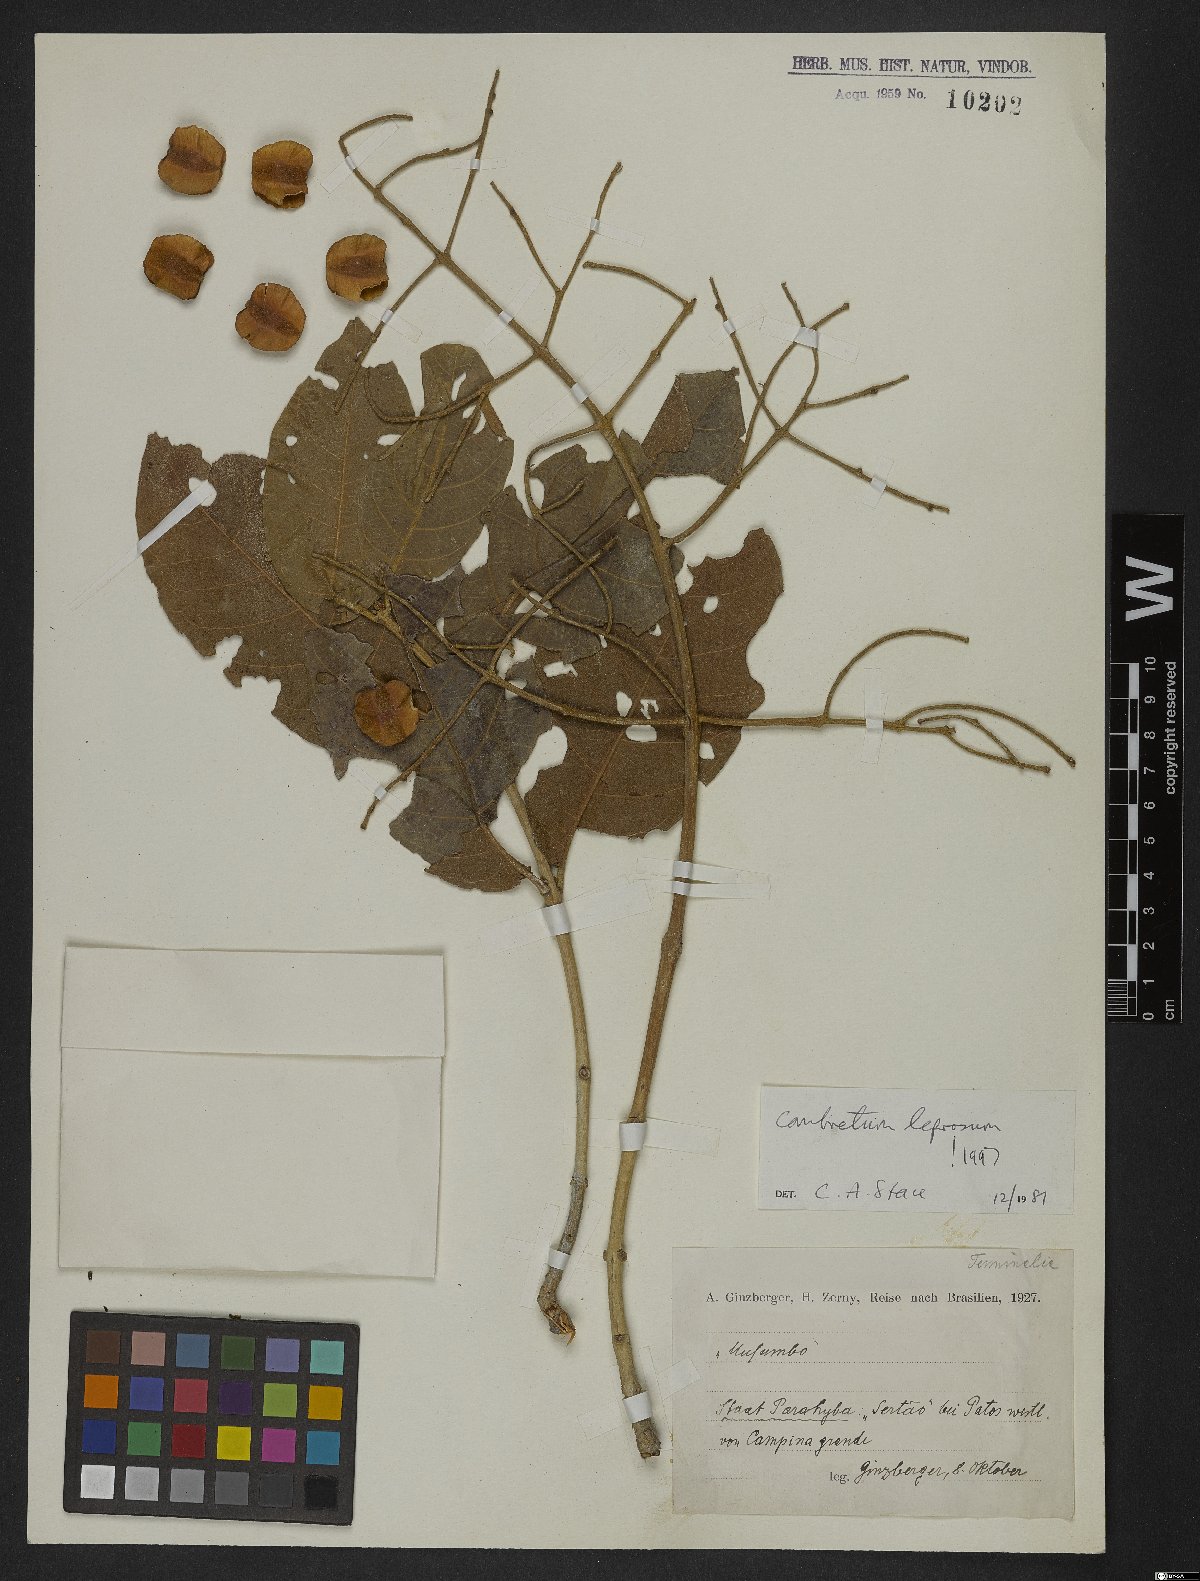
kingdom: Plantae
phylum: Tracheophyta
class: Magnoliopsida
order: Myrtales
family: Combretaceae
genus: Combretum
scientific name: Combretum leprosum
